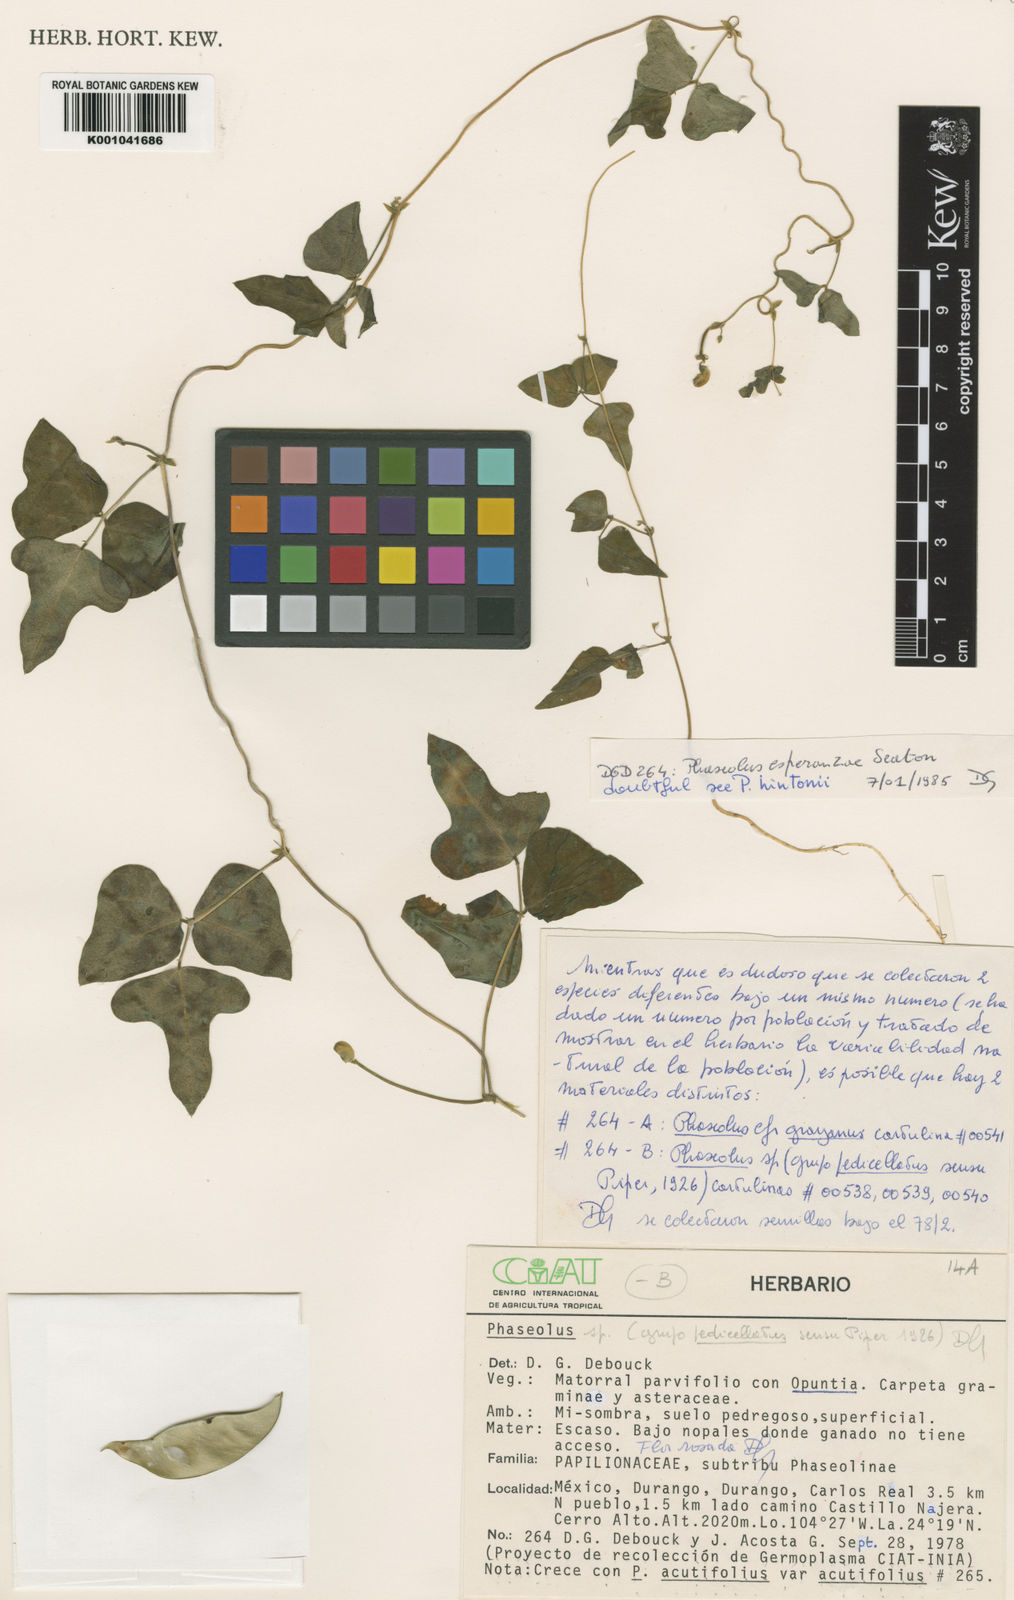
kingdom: Plantae
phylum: Tracheophyta
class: Magnoliopsida
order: Fabales
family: Fabaceae
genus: Phaseolus
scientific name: Phaseolus magnilobatus
